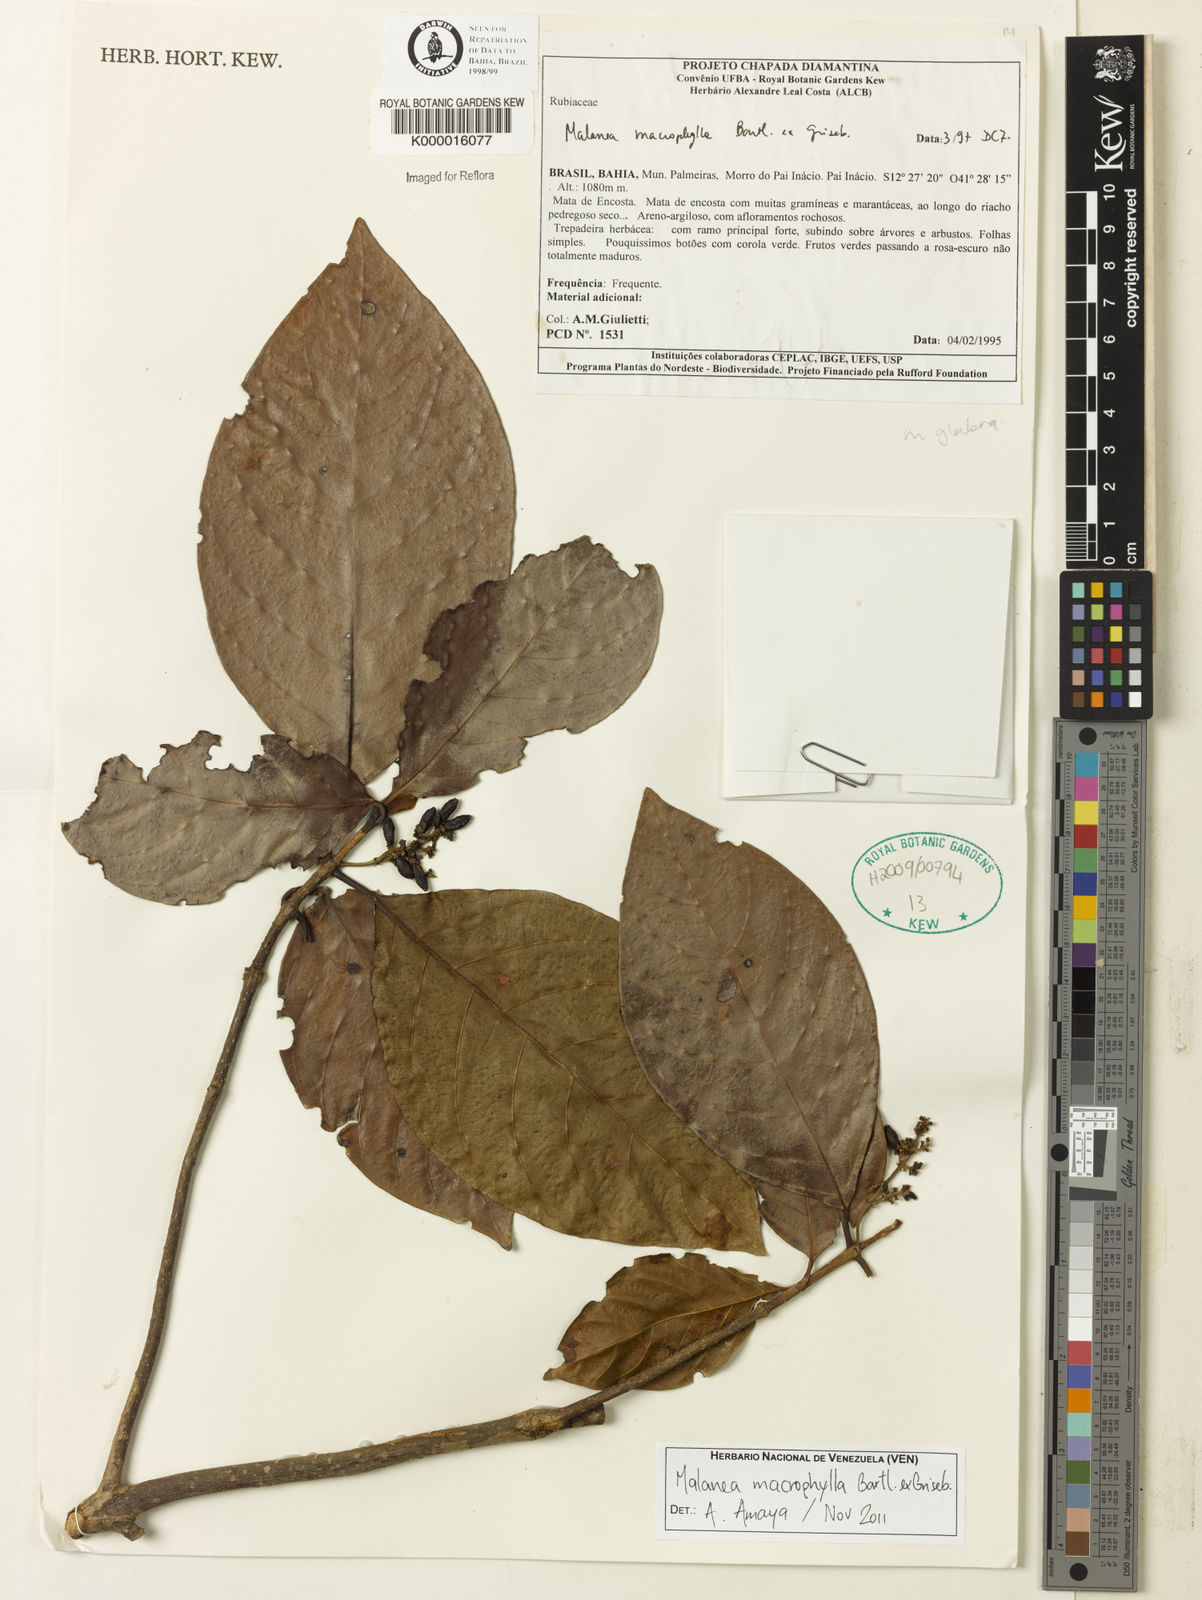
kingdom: Plantae
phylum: Tracheophyta
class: Magnoliopsida
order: Gentianales
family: Rubiaceae
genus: Malanea
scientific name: Malanea glabra
